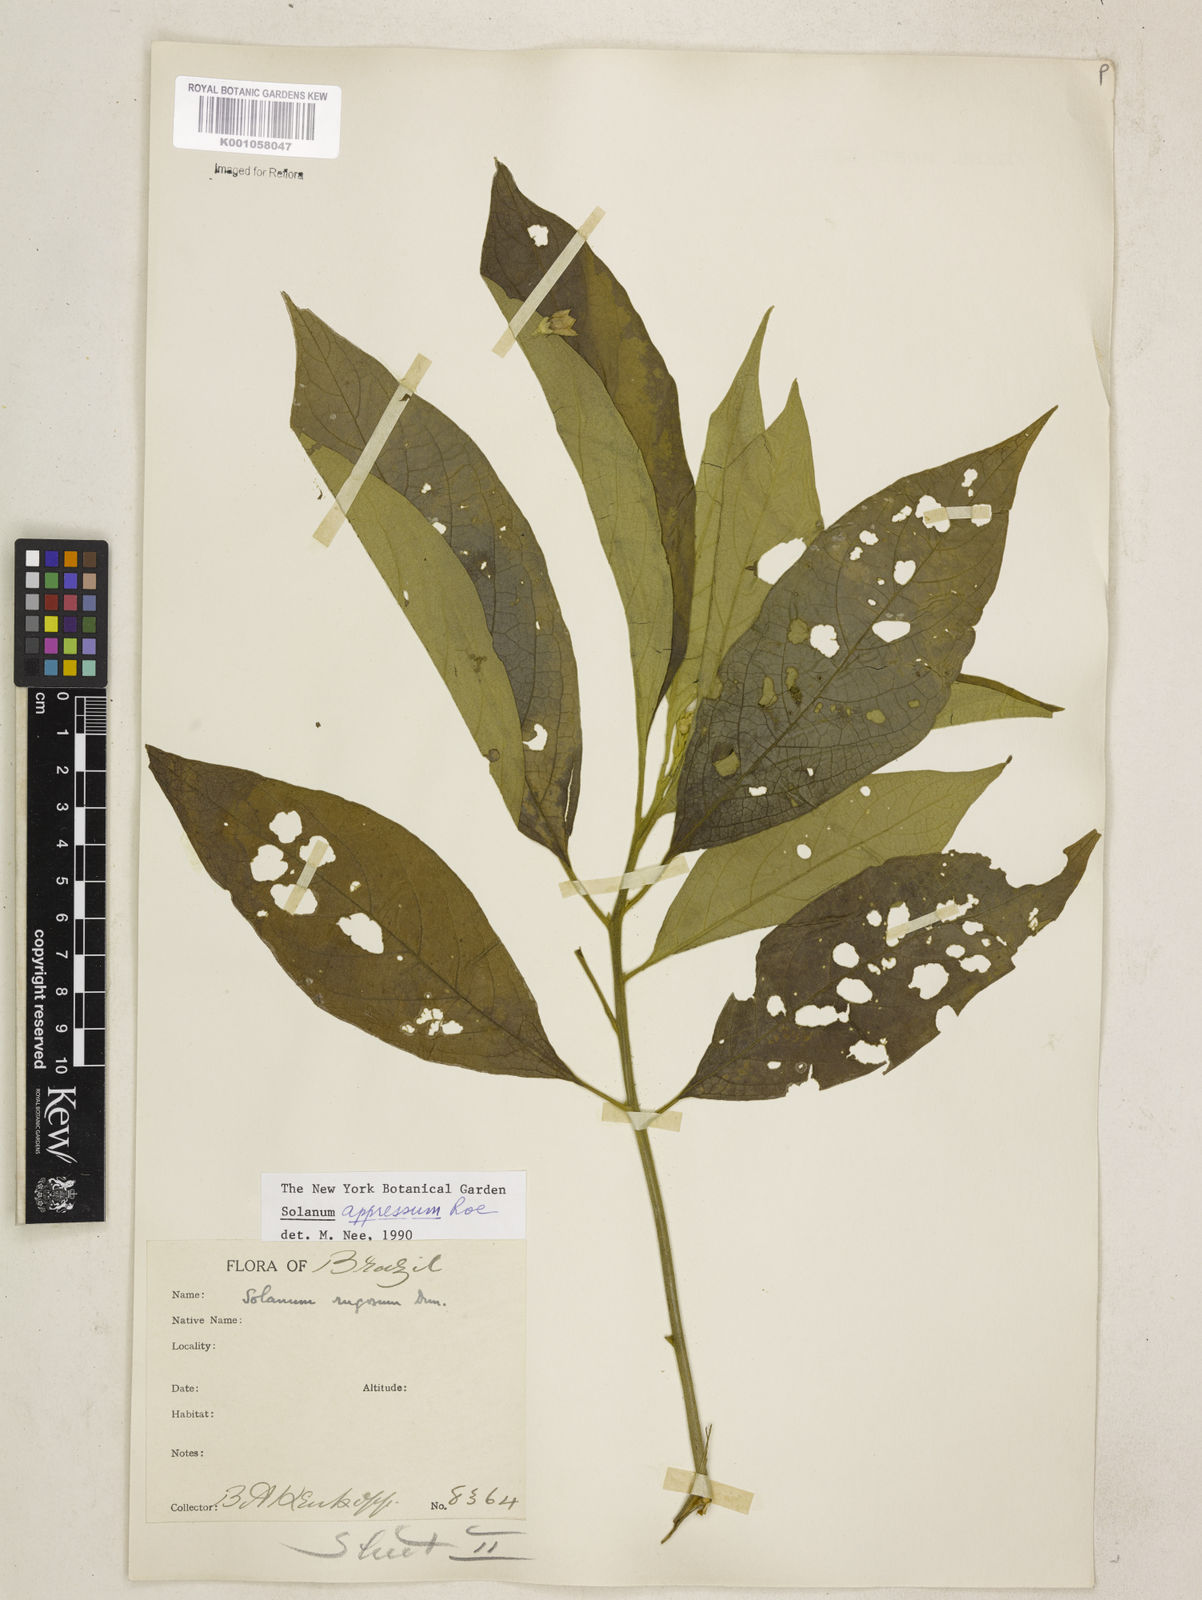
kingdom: Plantae
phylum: Tracheophyta
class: Magnoliopsida
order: Solanales
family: Solanaceae
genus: Solanum
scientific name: Solanum appressum
